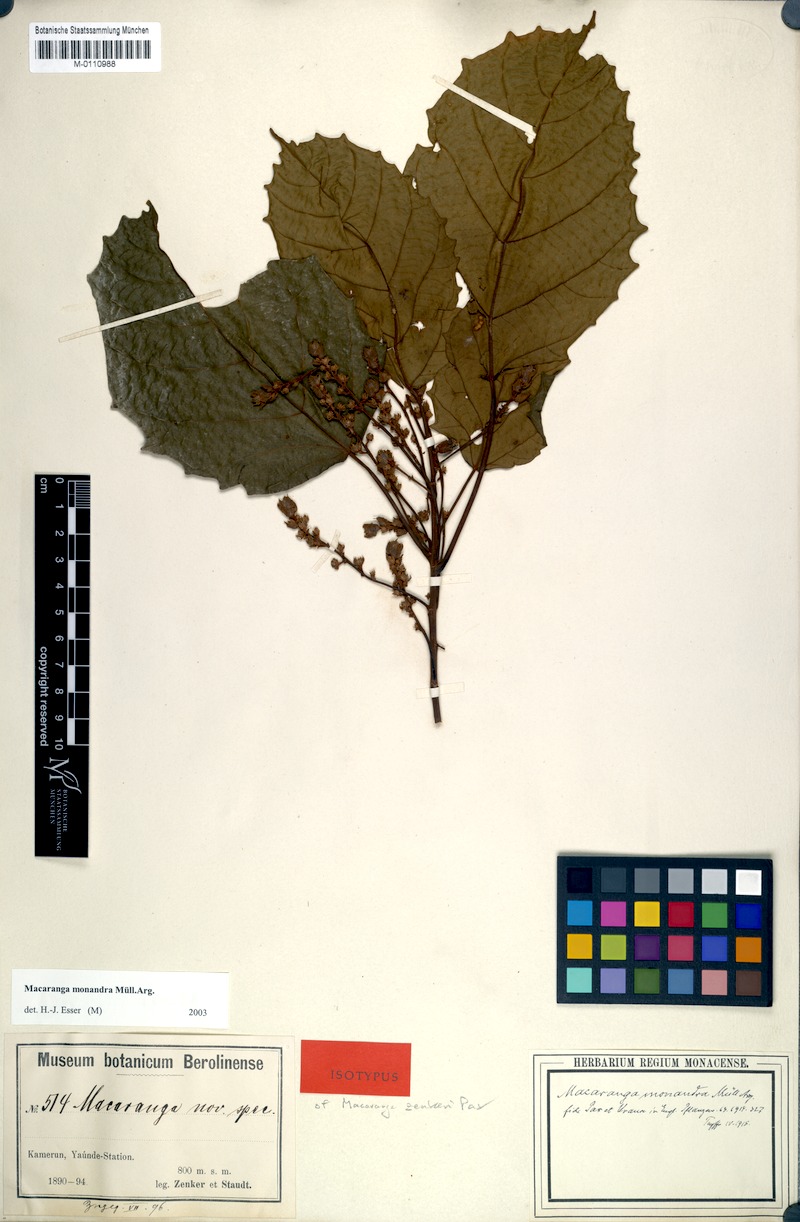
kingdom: Plantae
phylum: Tracheophyta
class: Magnoliopsida
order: Malpighiales
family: Euphorbiaceae
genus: Macaranga
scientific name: Macaranga monandra
